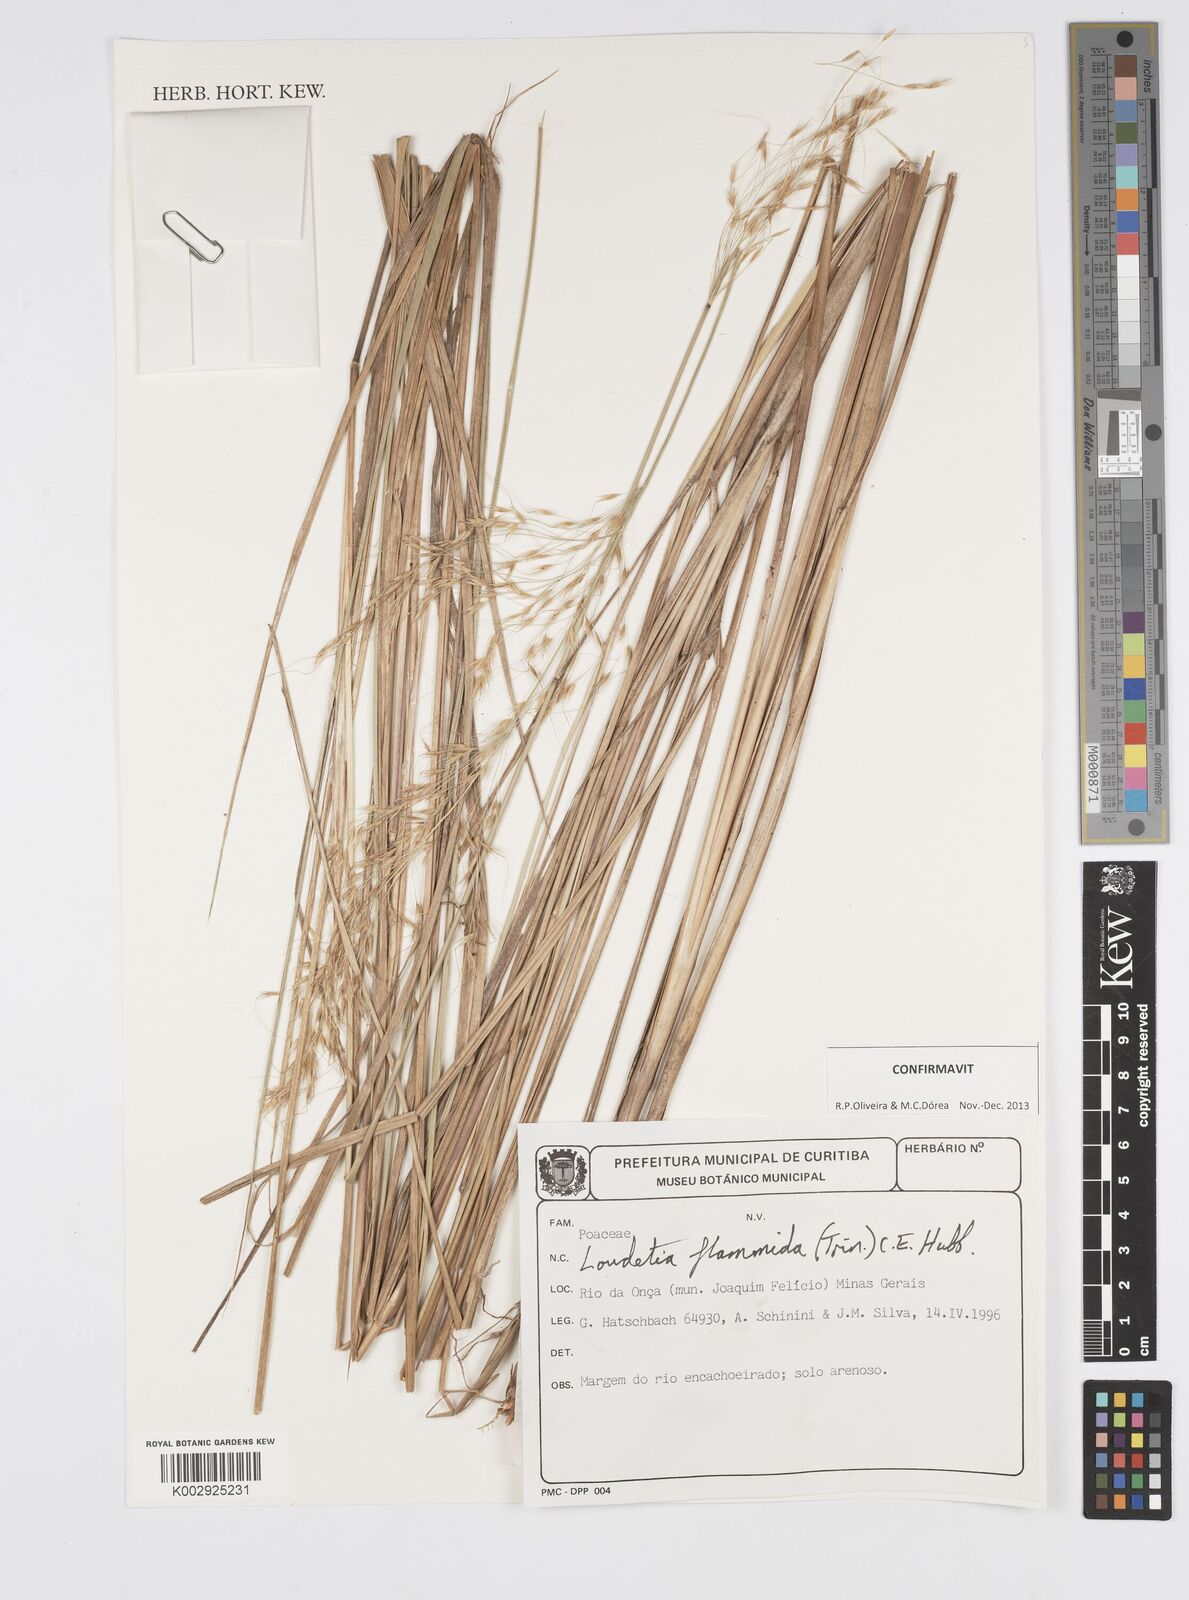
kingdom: Plantae
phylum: Tracheophyta
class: Liliopsida
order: Poales
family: Poaceae
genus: Loudetia
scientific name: Loudetia flammida
